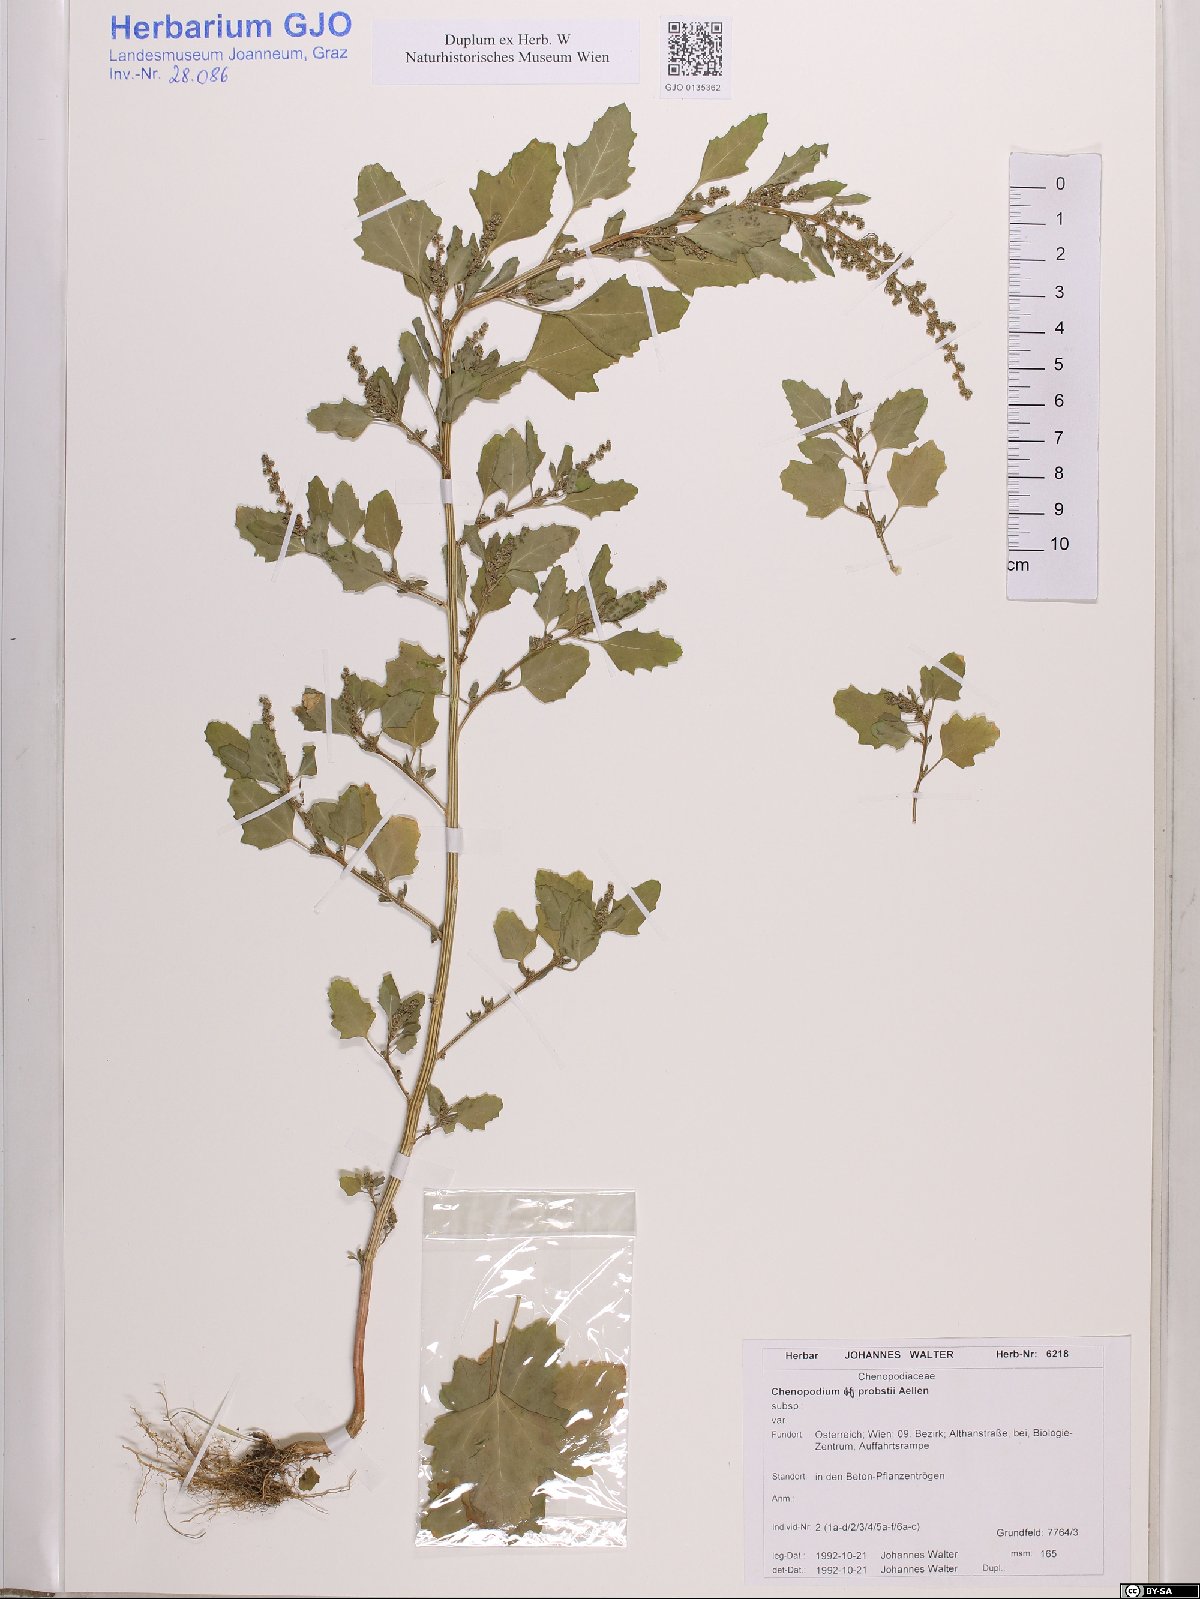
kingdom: Plantae
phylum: Tracheophyta
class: Magnoliopsida
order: Caryophyllales
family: Amaranthaceae
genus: Chenopodium
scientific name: Chenopodium probstii
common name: Probst's goosefoot
